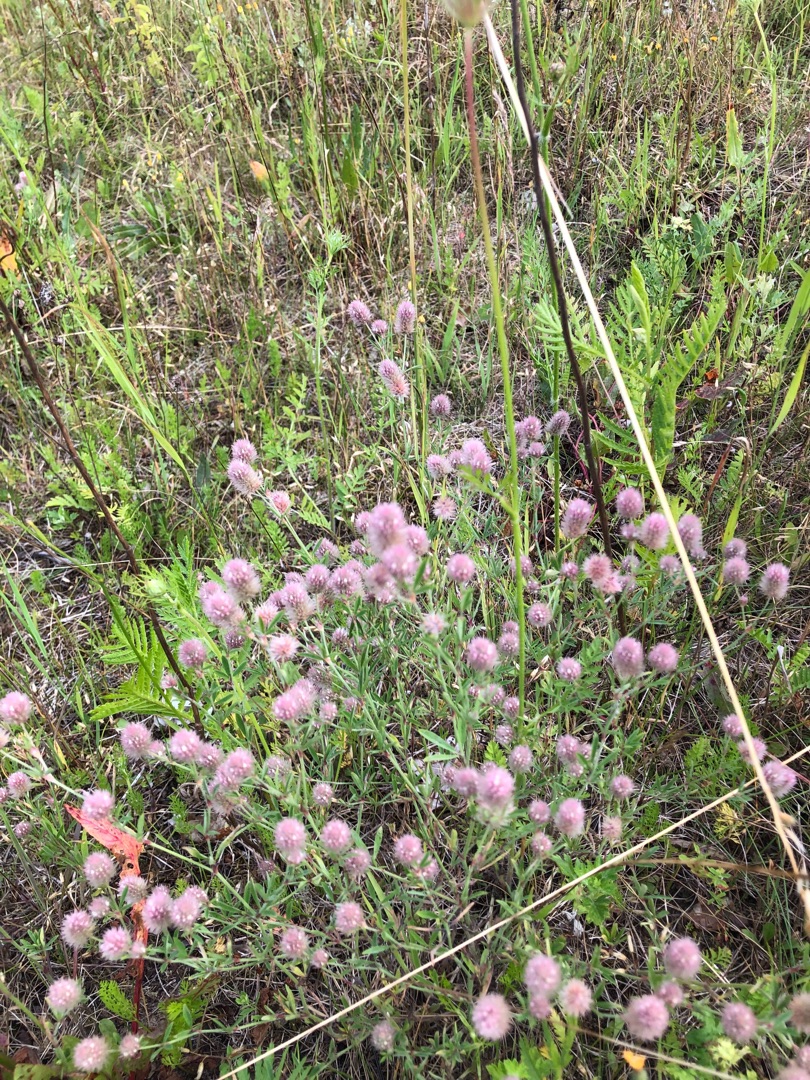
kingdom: Plantae
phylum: Tracheophyta
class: Magnoliopsida
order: Fabales
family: Fabaceae
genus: Trifolium
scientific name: Trifolium arvense
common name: Hare-kløver
